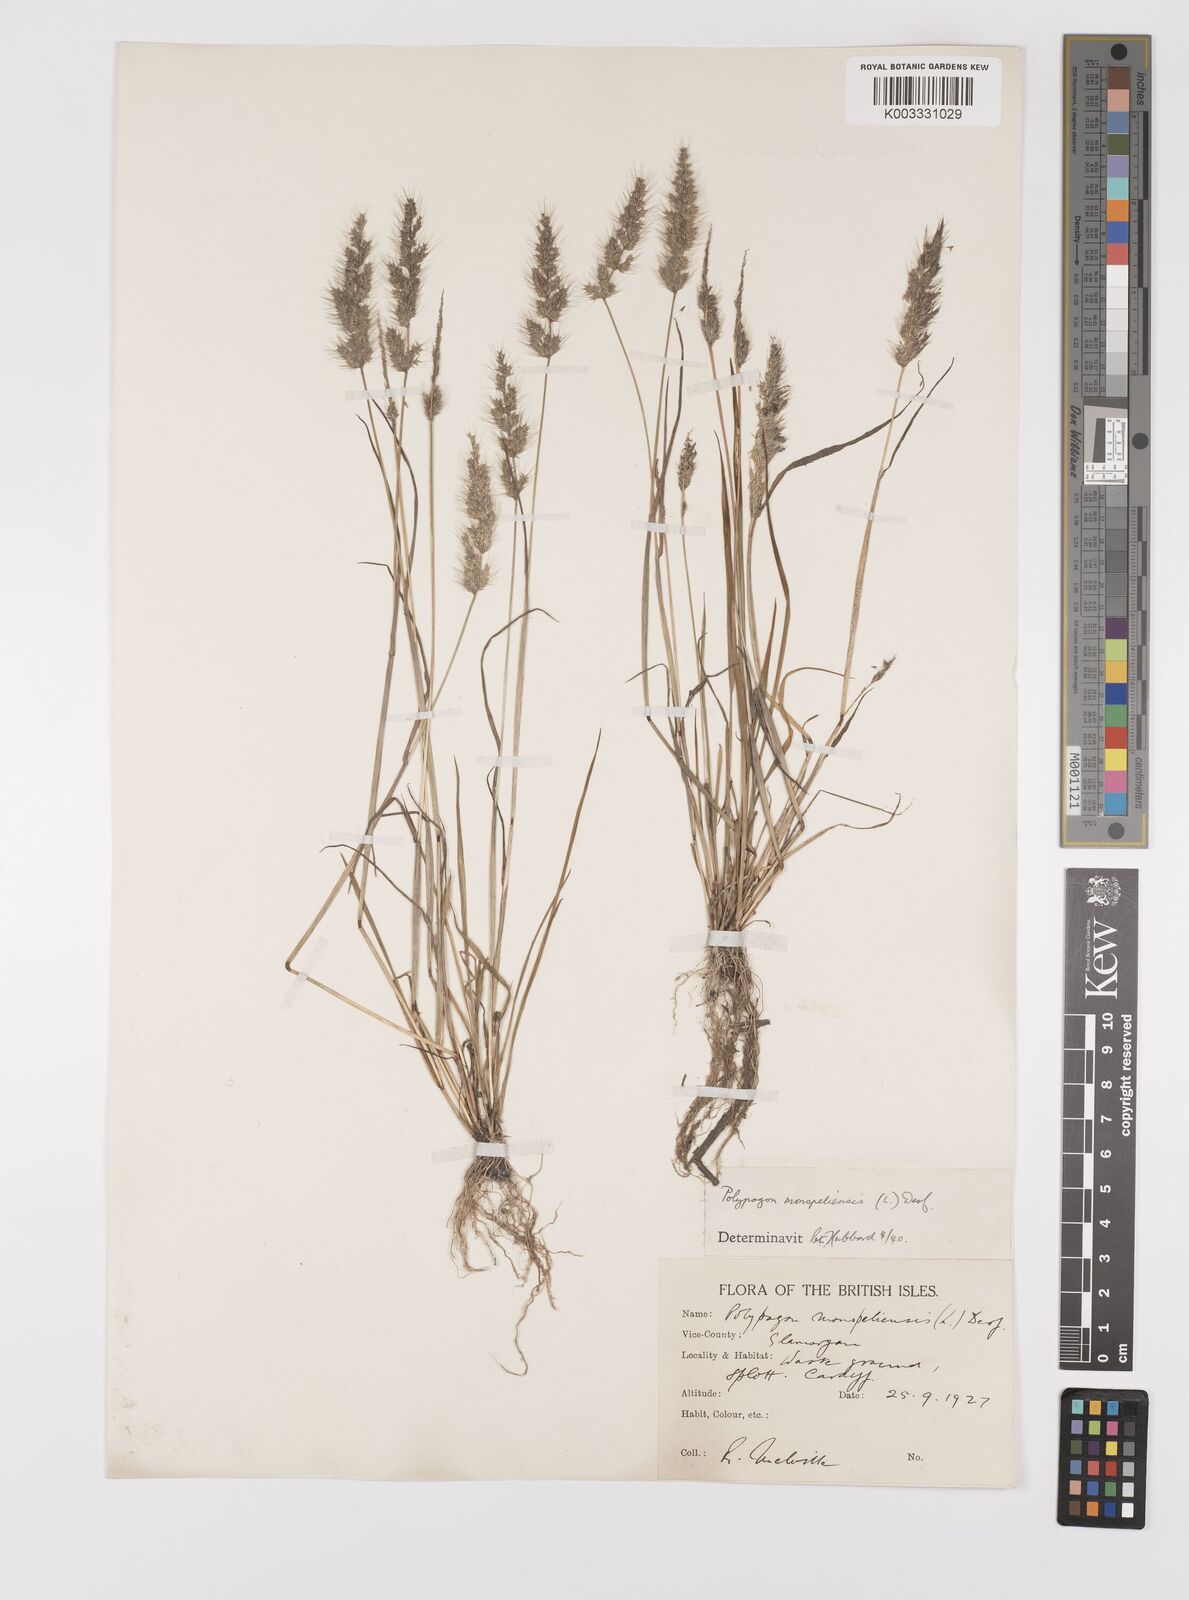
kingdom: Plantae
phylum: Tracheophyta
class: Liliopsida
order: Poales
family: Poaceae
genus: Polypogon
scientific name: Polypogon monspeliensis
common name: Annual rabbitsfoot grass
